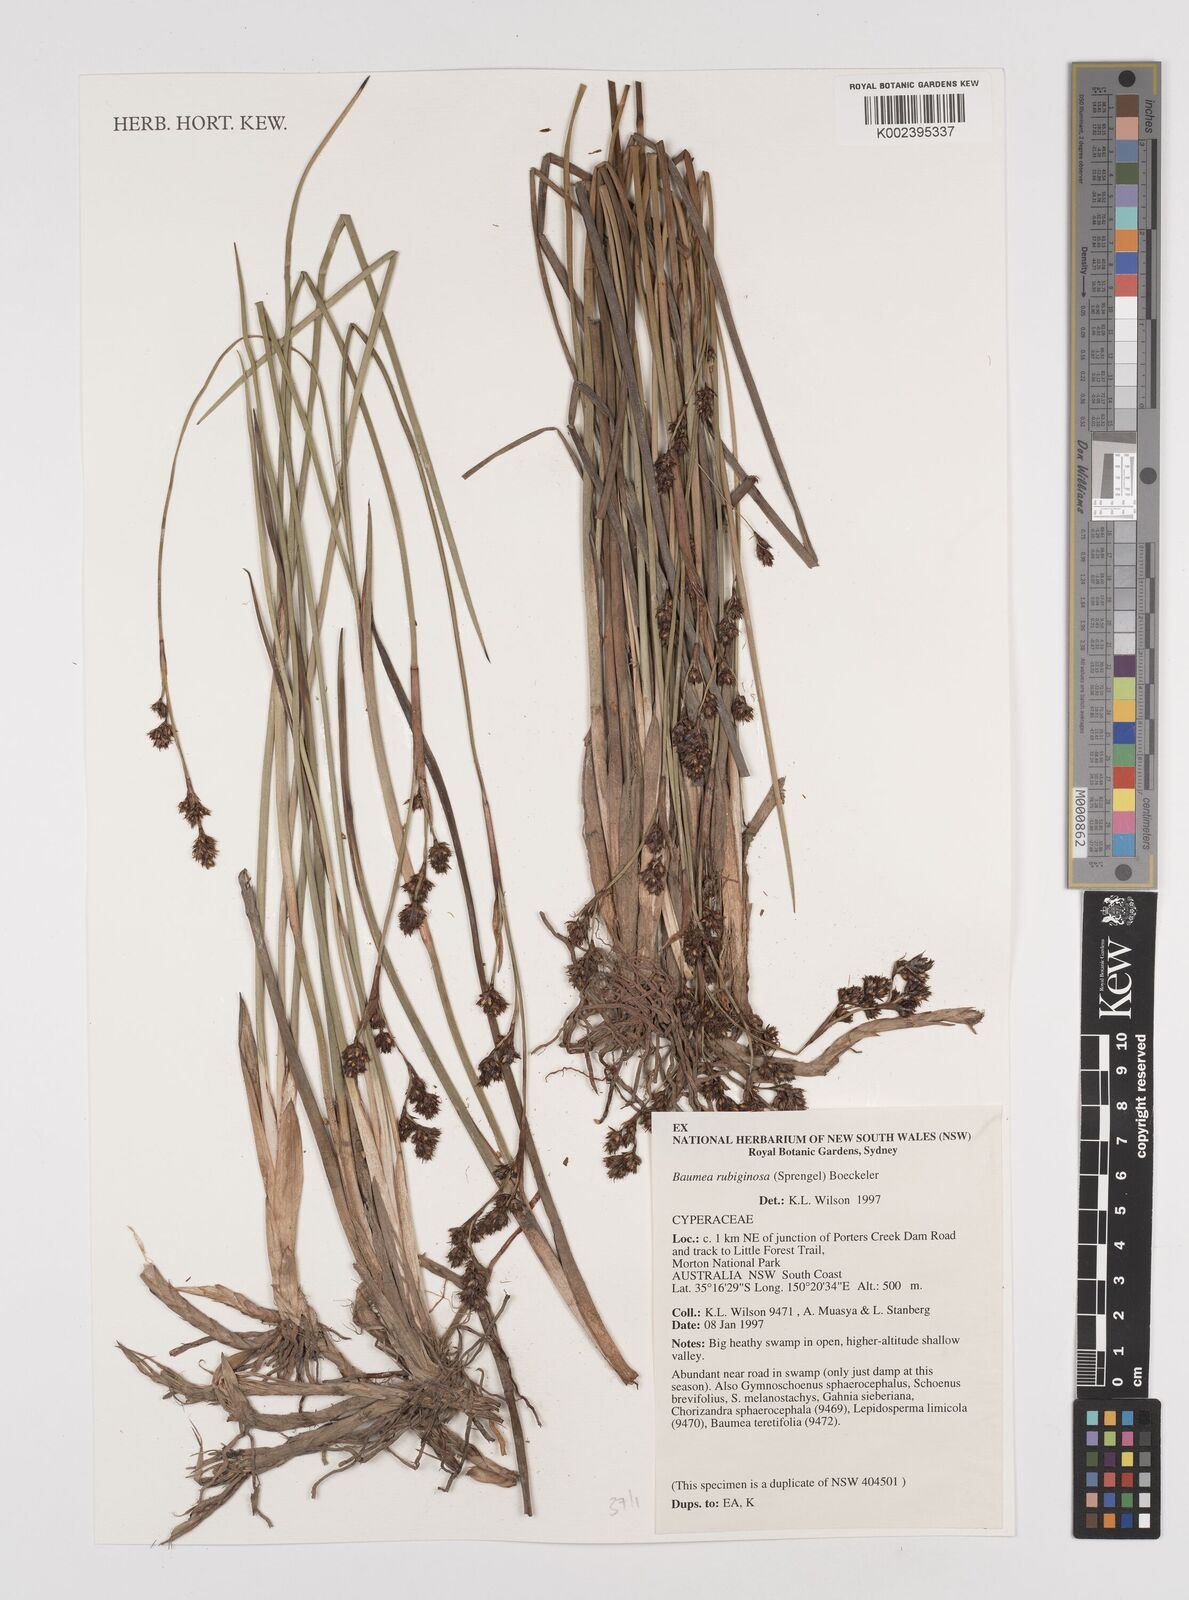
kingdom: Plantae
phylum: Tracheophyta
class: Liliopsida
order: Poales
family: Cyperaceae
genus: Machaerina
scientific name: Machaerina rubiginosa
